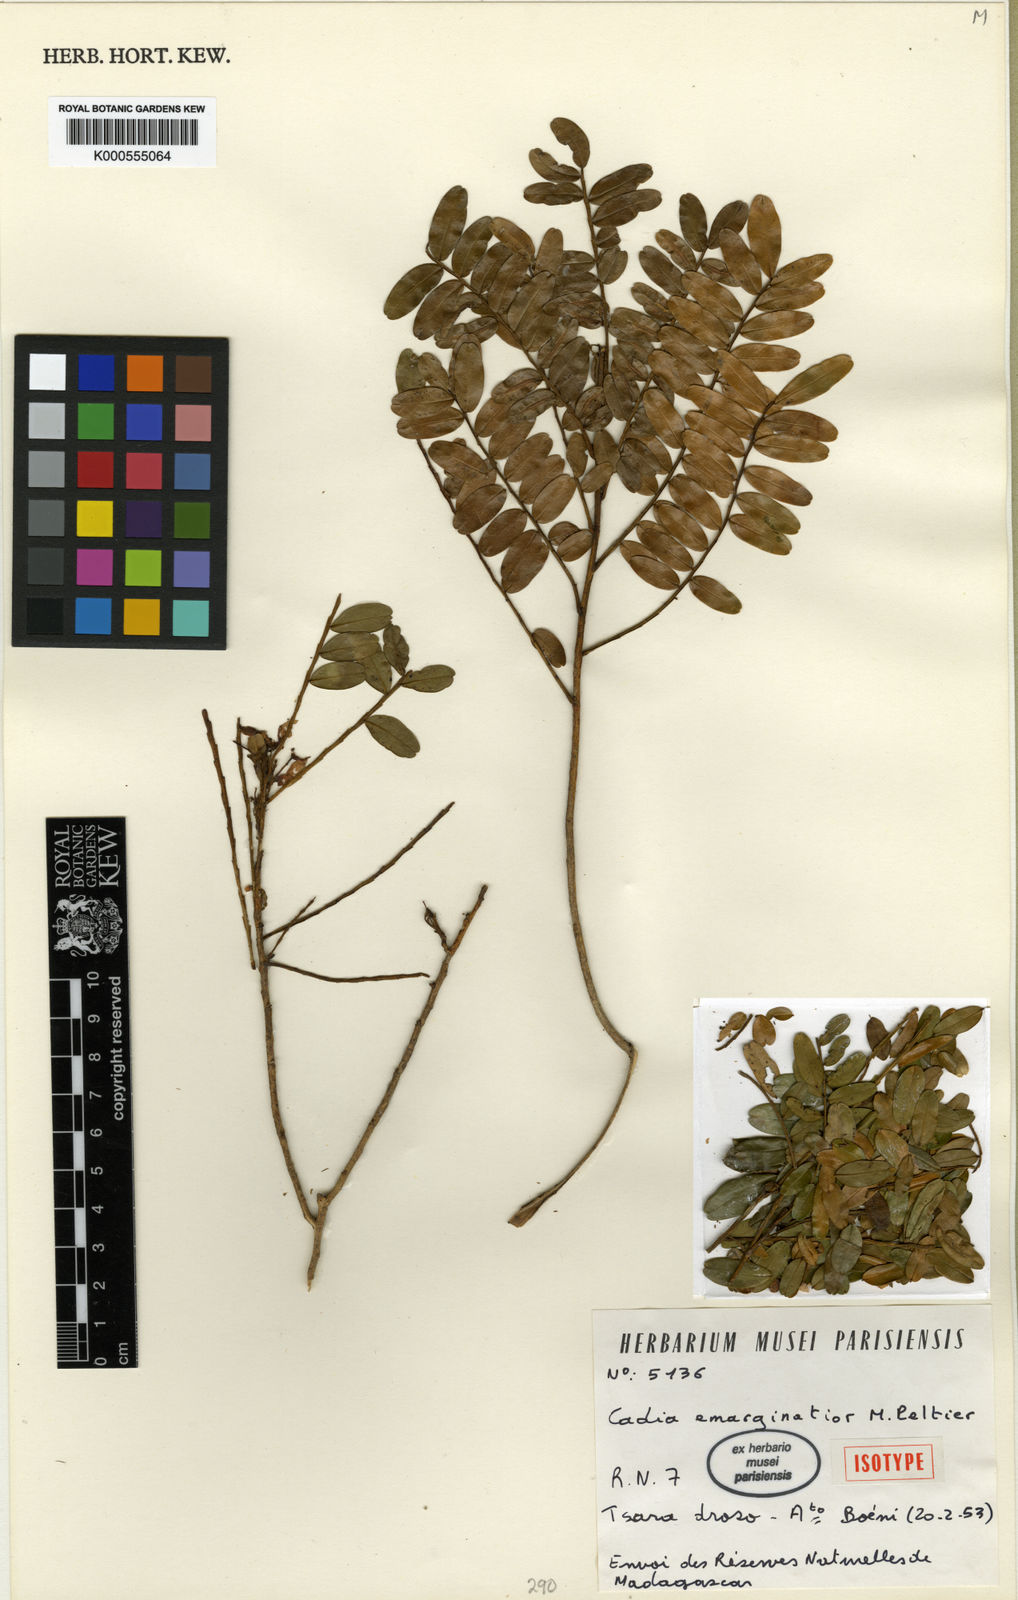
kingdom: Plantae
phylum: Tracheophyta
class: Magnoliopsida
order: Fabales
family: Fabaceae
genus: Cadia
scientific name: Cadia emarginatior
